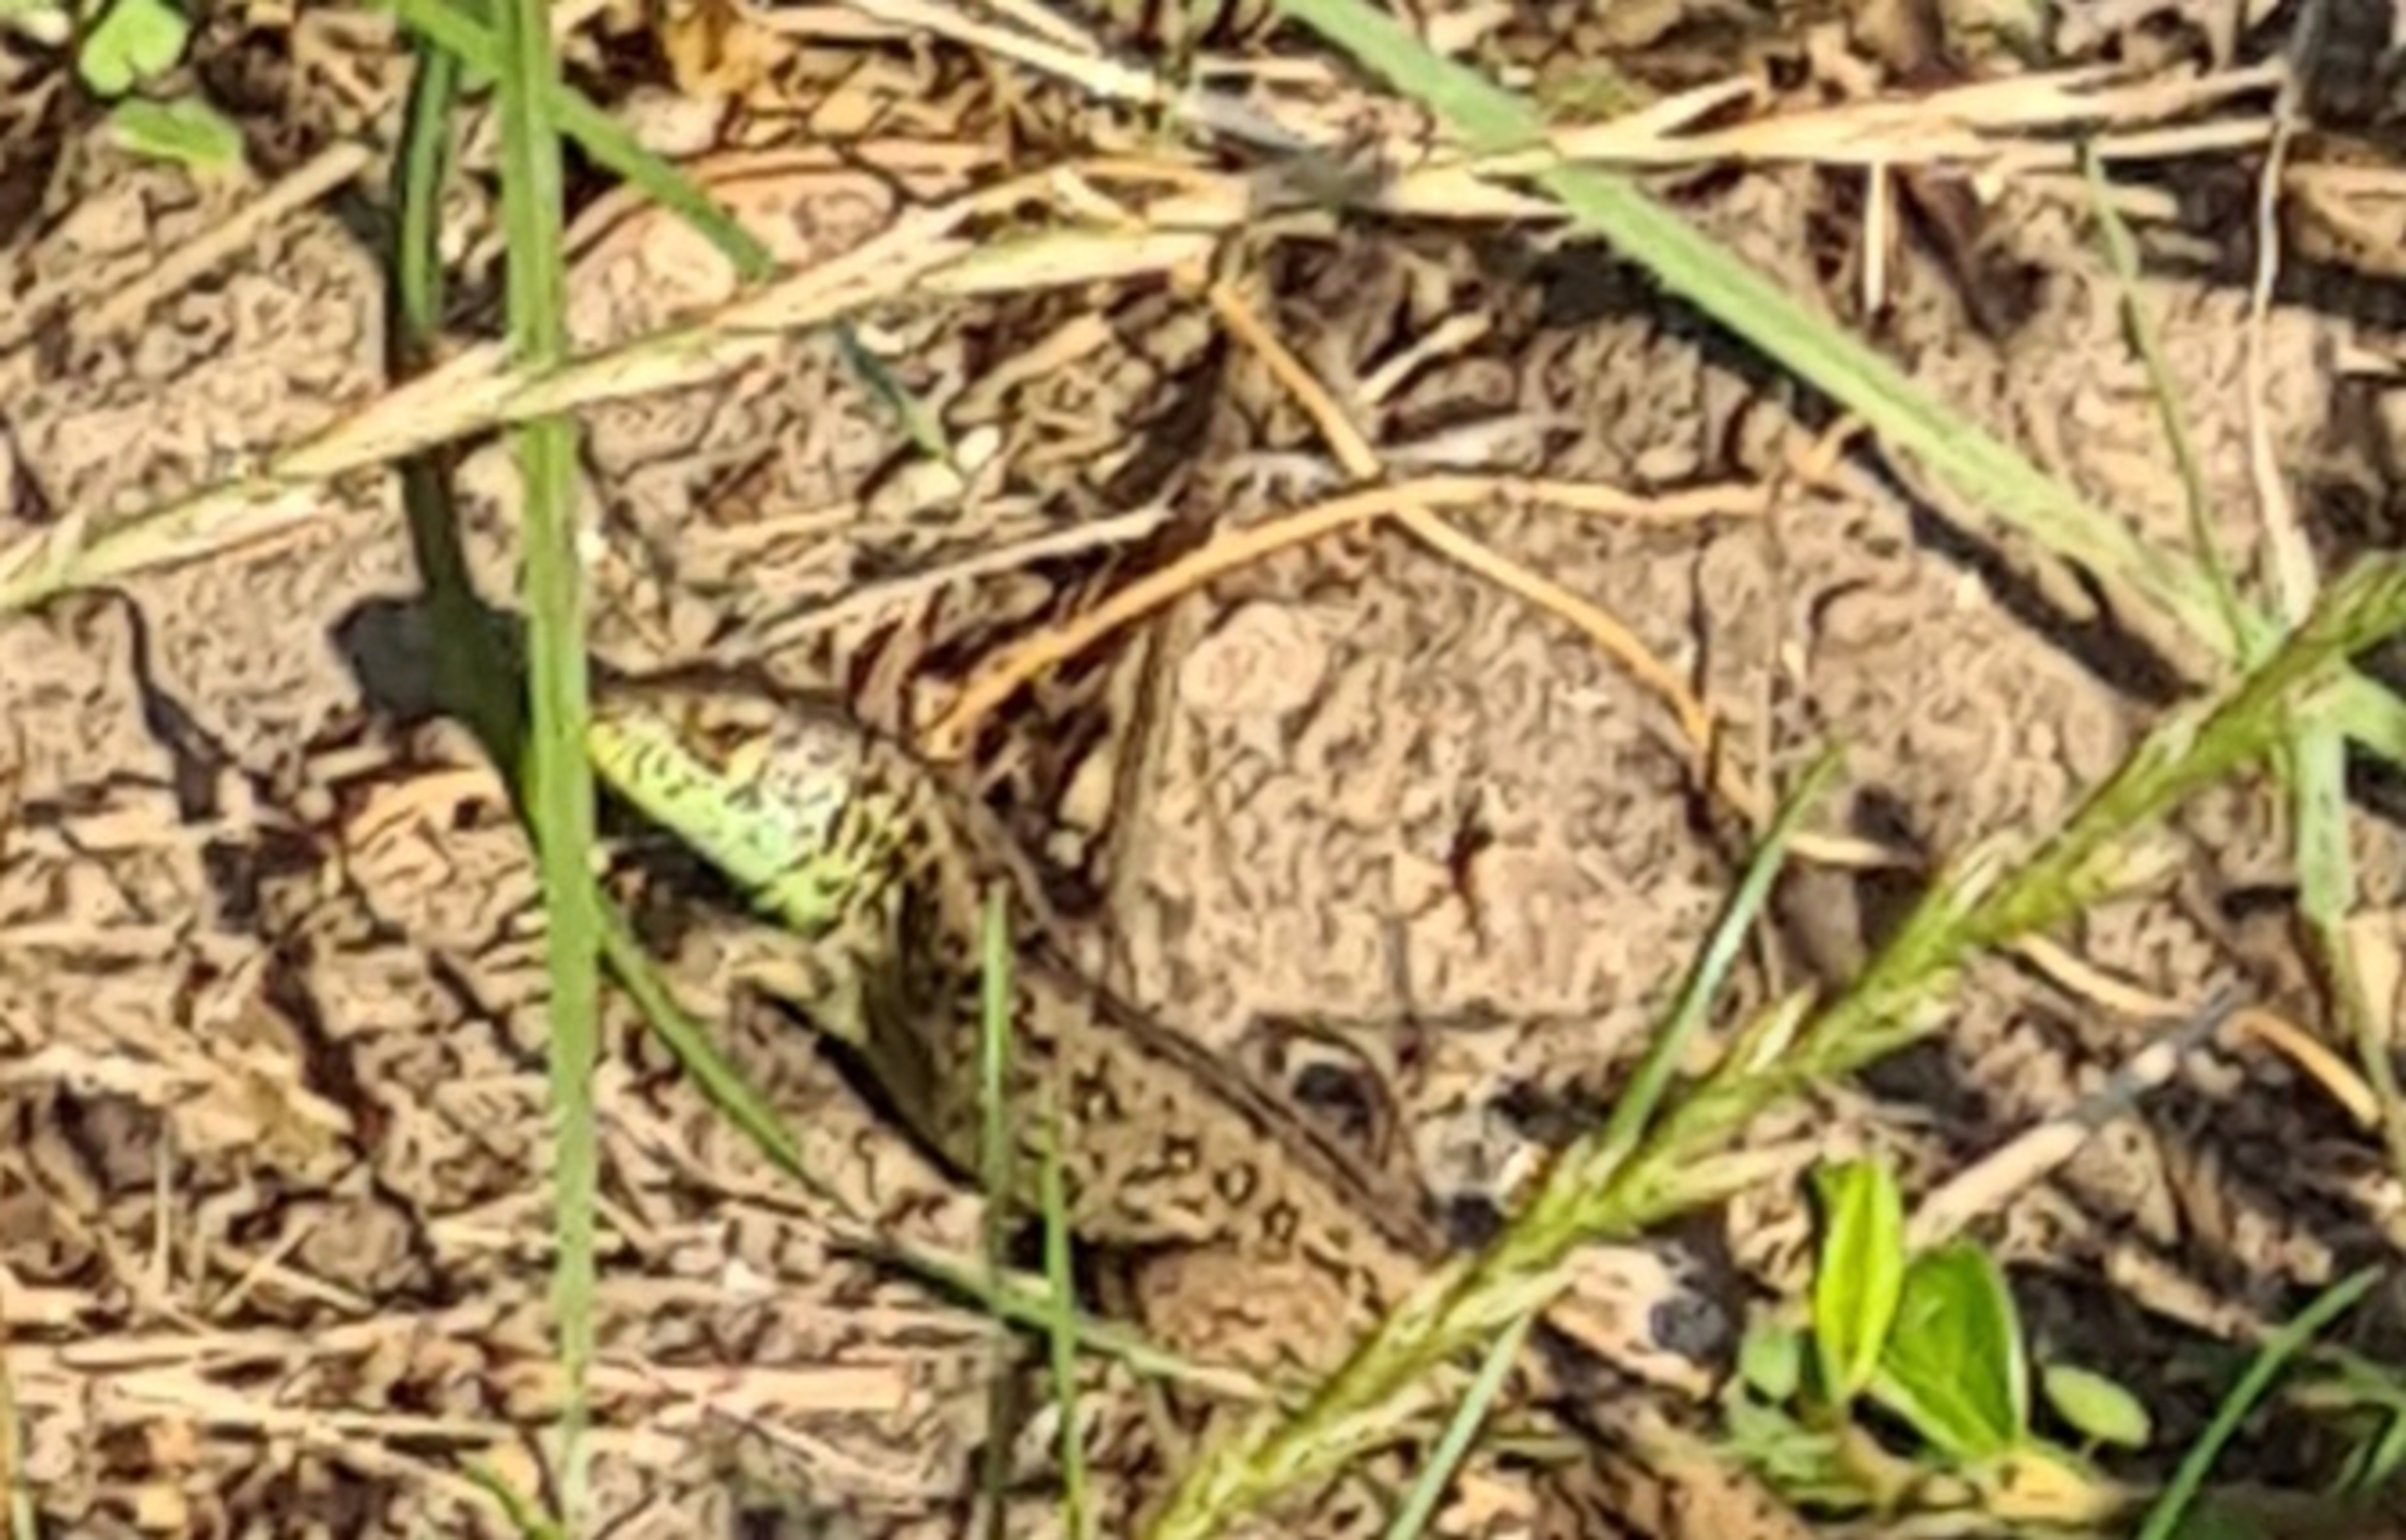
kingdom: Animalia
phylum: Chordata
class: Squamata
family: Lacertidae
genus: Lacerta
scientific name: Lacerta agilis
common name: Markfirben
